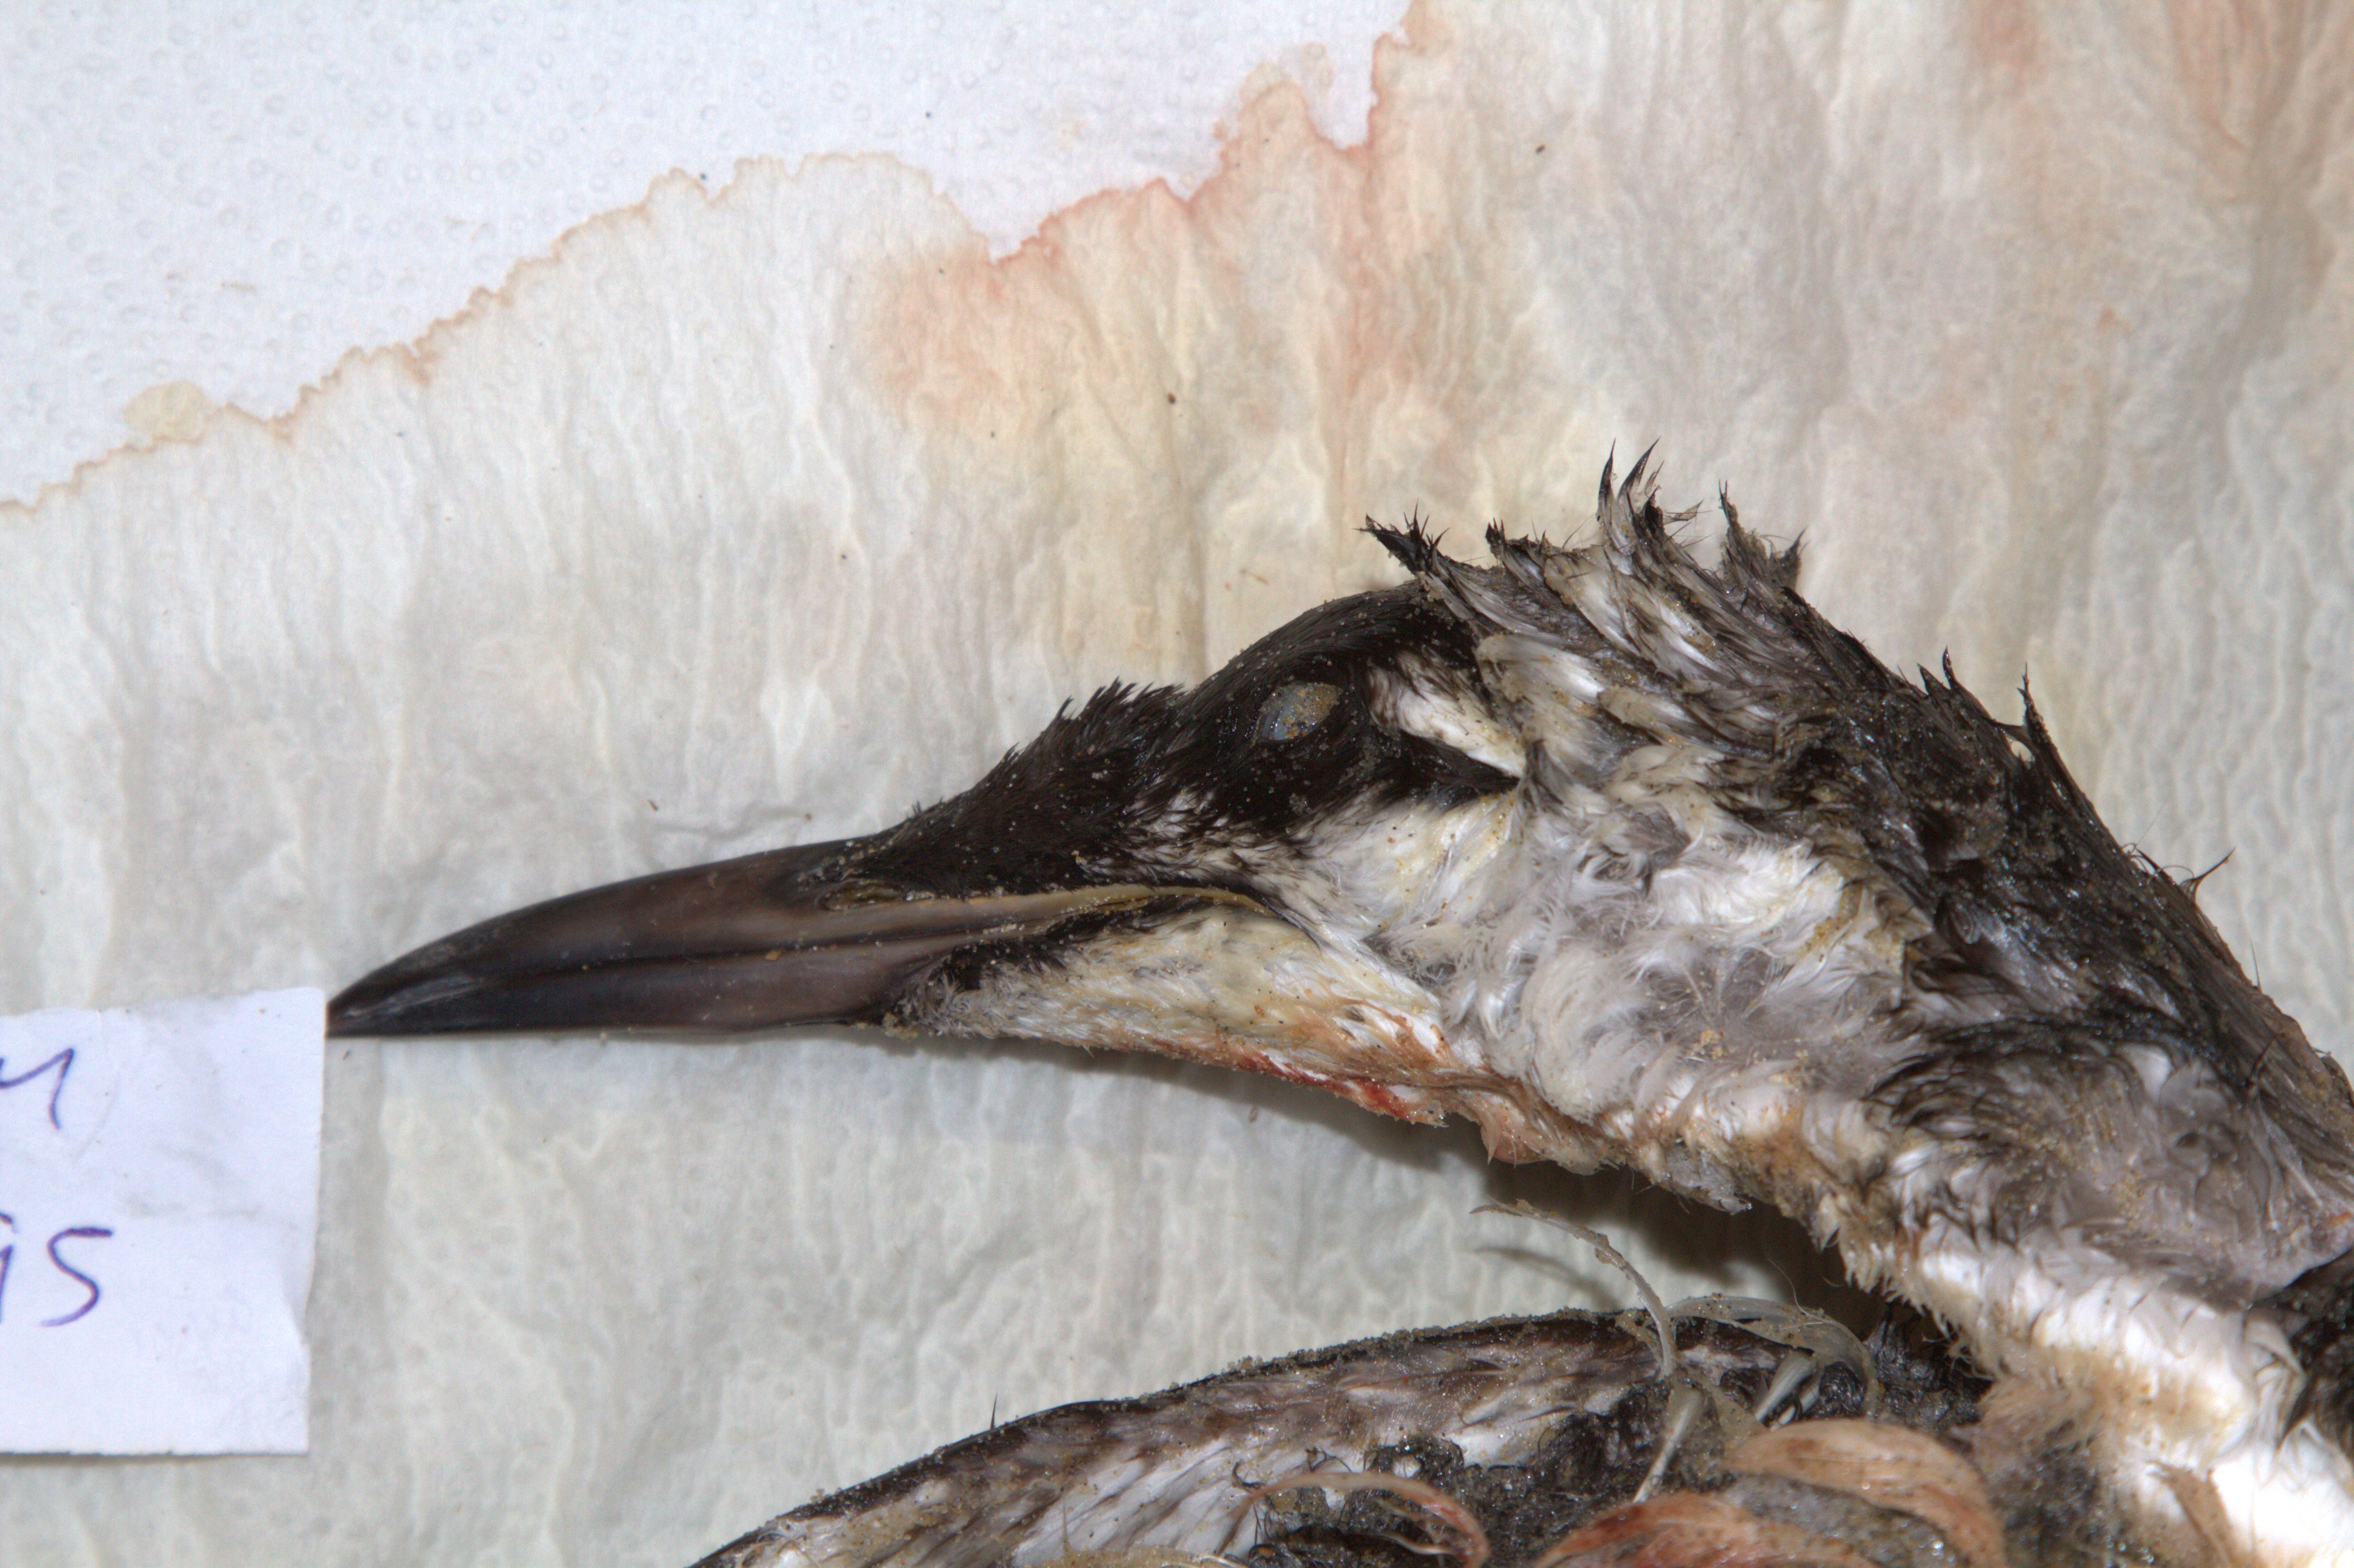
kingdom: Animalia
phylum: Chordata
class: Aves
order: Charadriiformes
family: Alcidae
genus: Uria
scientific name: Uria aalge
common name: Common murre
